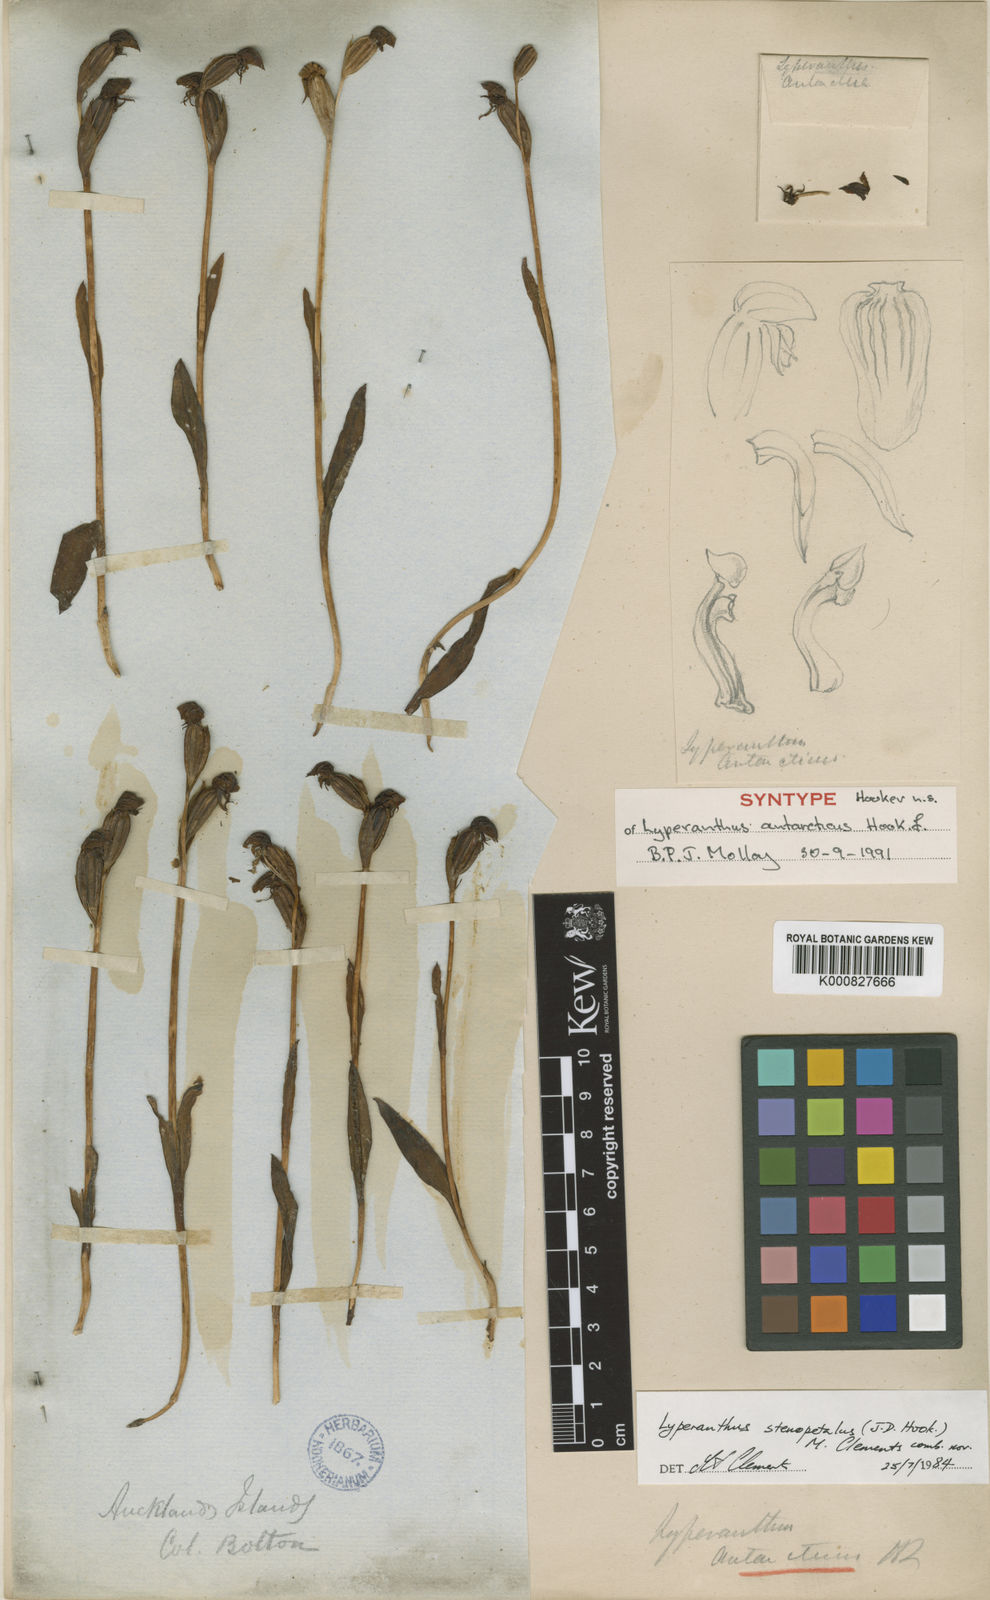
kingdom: Plantae
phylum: Tracheophyta
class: Liliopsida
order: Asparagales
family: Orchidaceae
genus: Lyperanthus
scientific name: Lyperanthus
